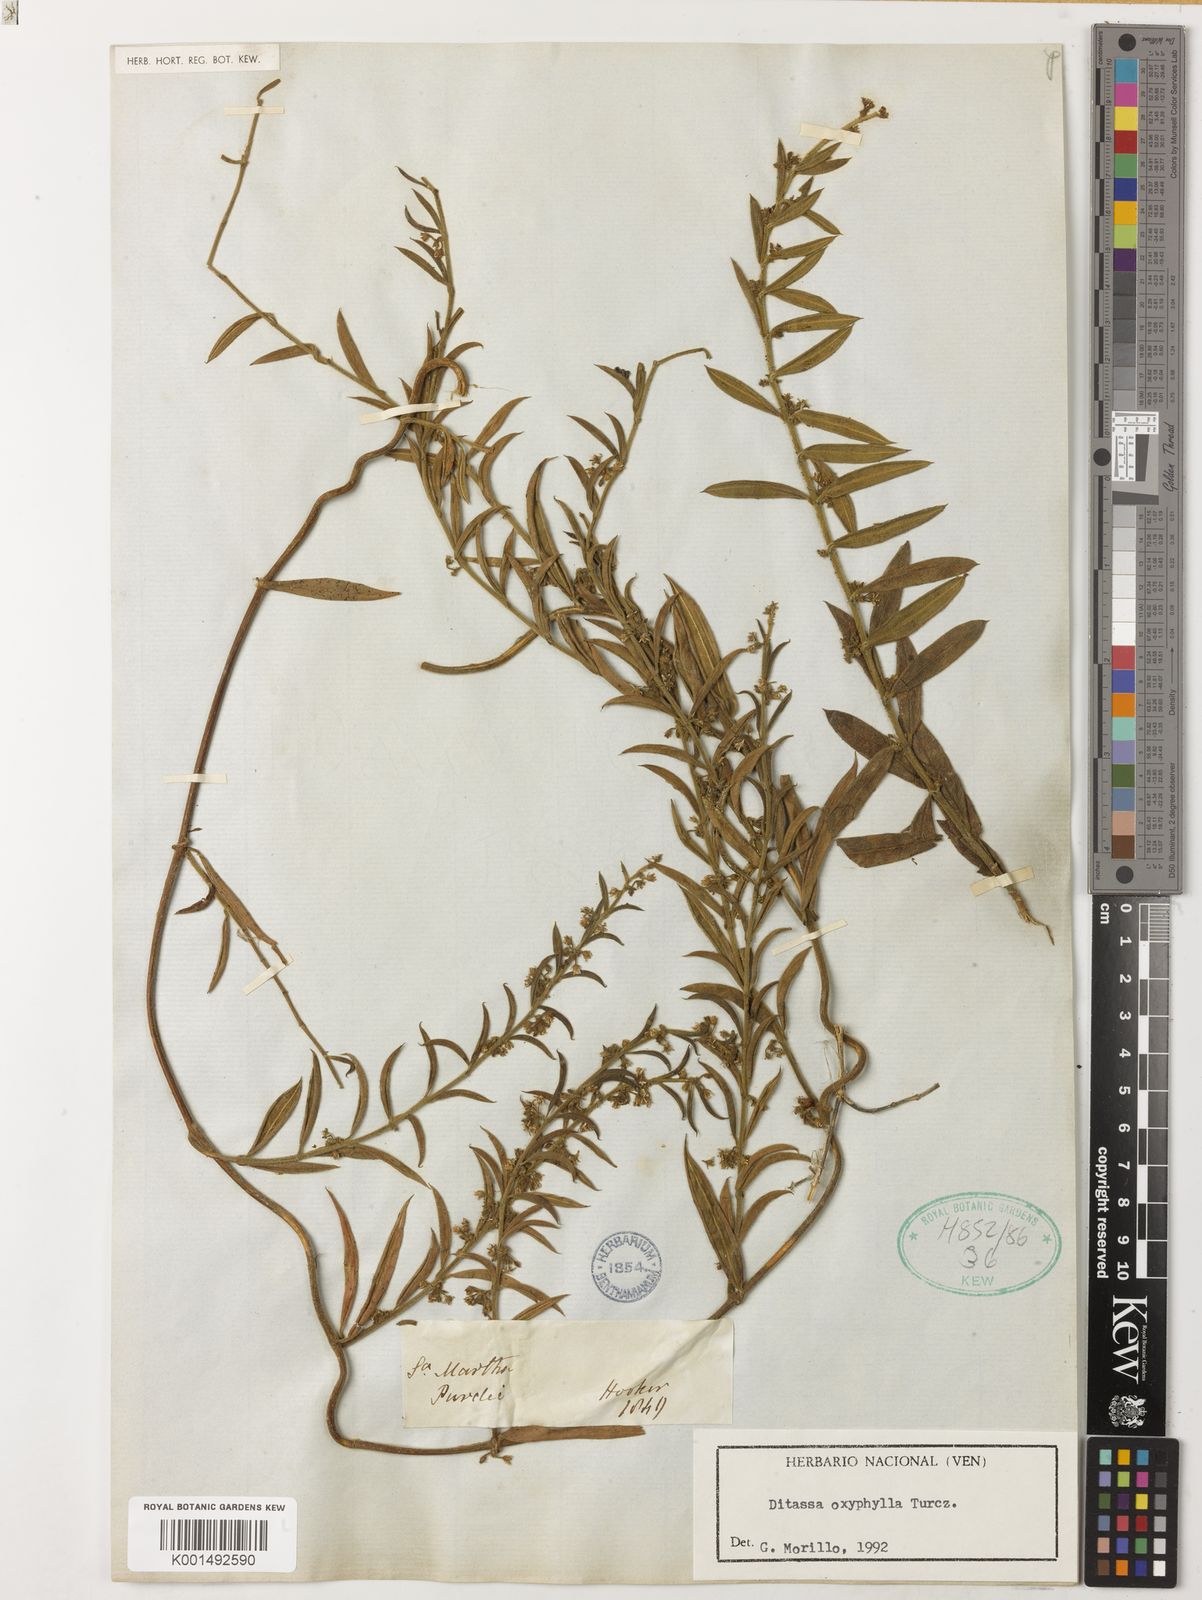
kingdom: Plantae
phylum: Tracheophyta
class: Magnoliopsida
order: Gentianales
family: Apocynaceae
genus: Ditassa
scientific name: Ditassa oxyphylla
